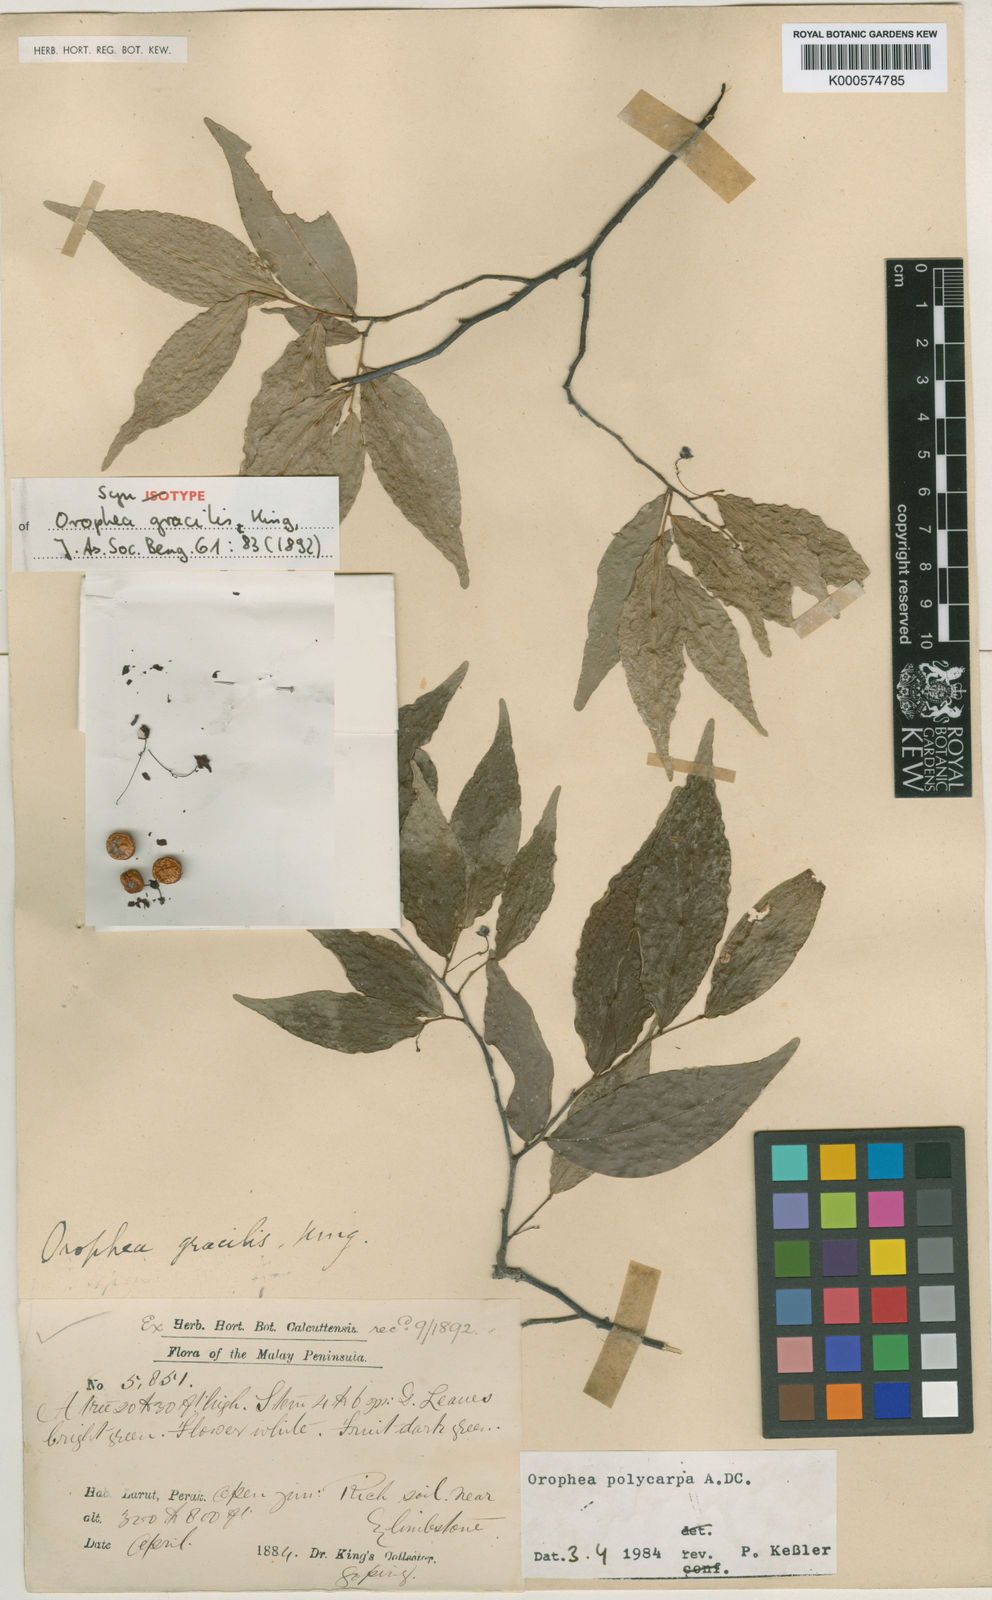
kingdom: Plantae
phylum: Tracheophyta
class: Magnoliopsida
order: Magnoliales
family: Annonaceae
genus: Orophea
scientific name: Orophea polycarpa
